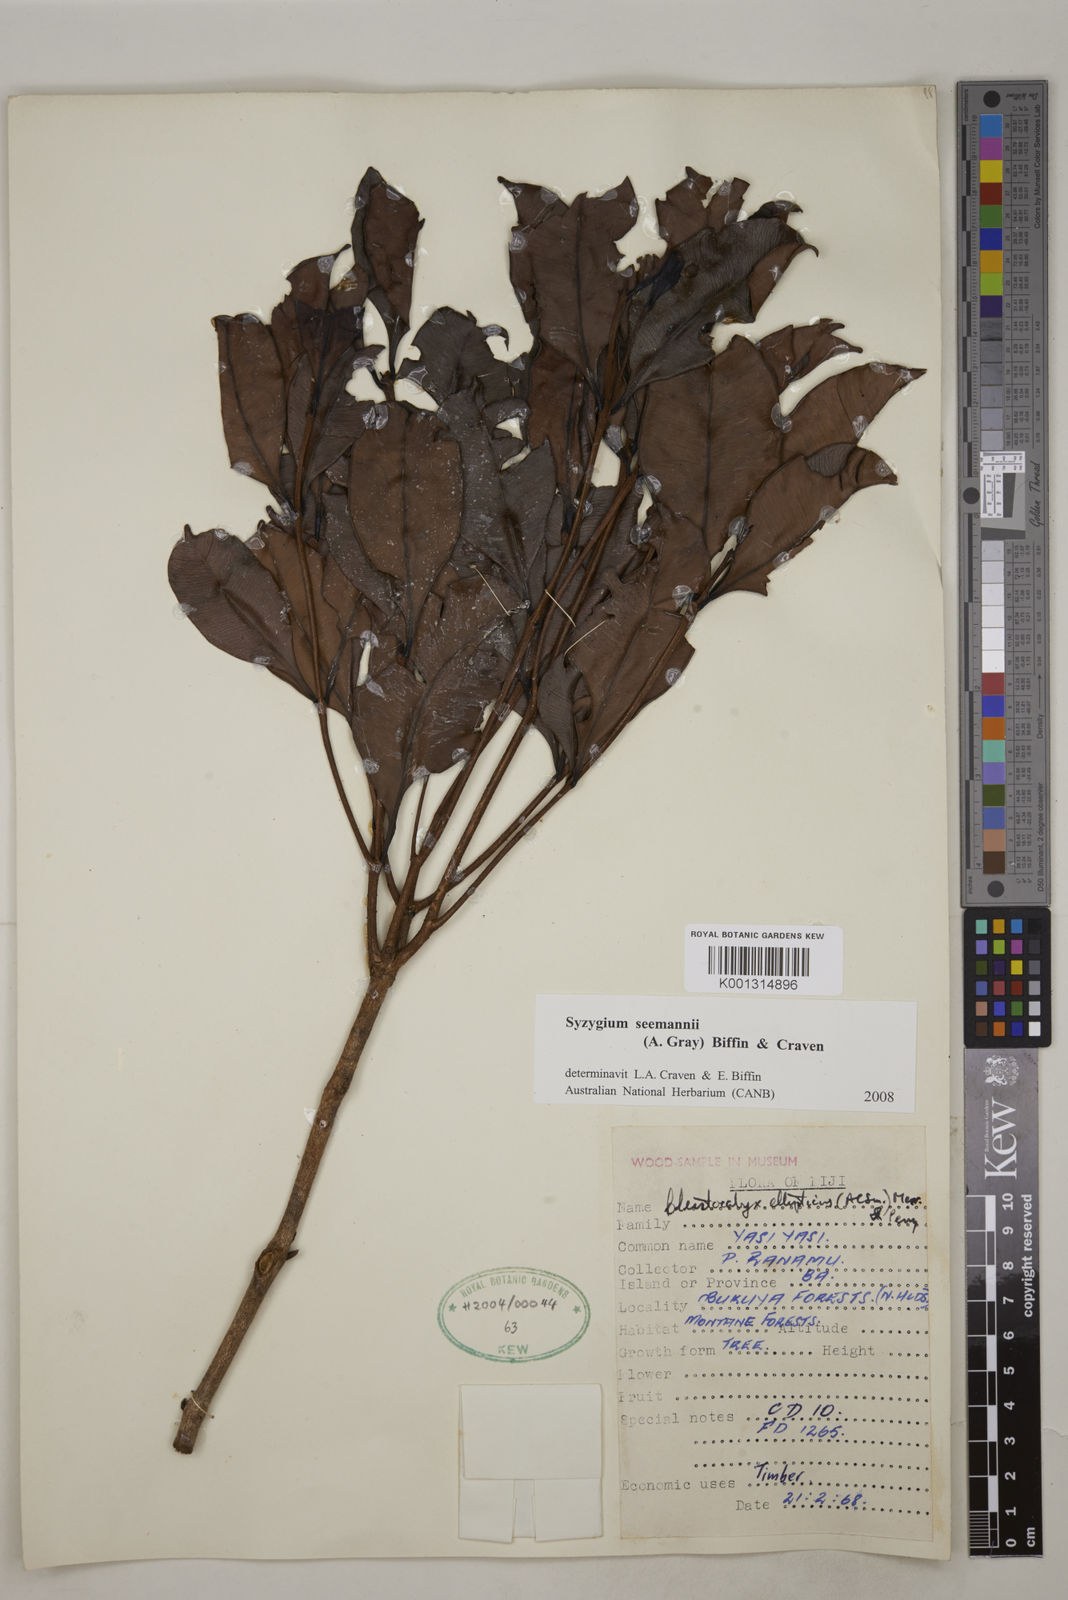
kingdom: Plantae
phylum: Tracheophyta
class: Magnoliopsida
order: Myrtales
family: Myrtaceae
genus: Syzygium
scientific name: Syzygium seemannii
